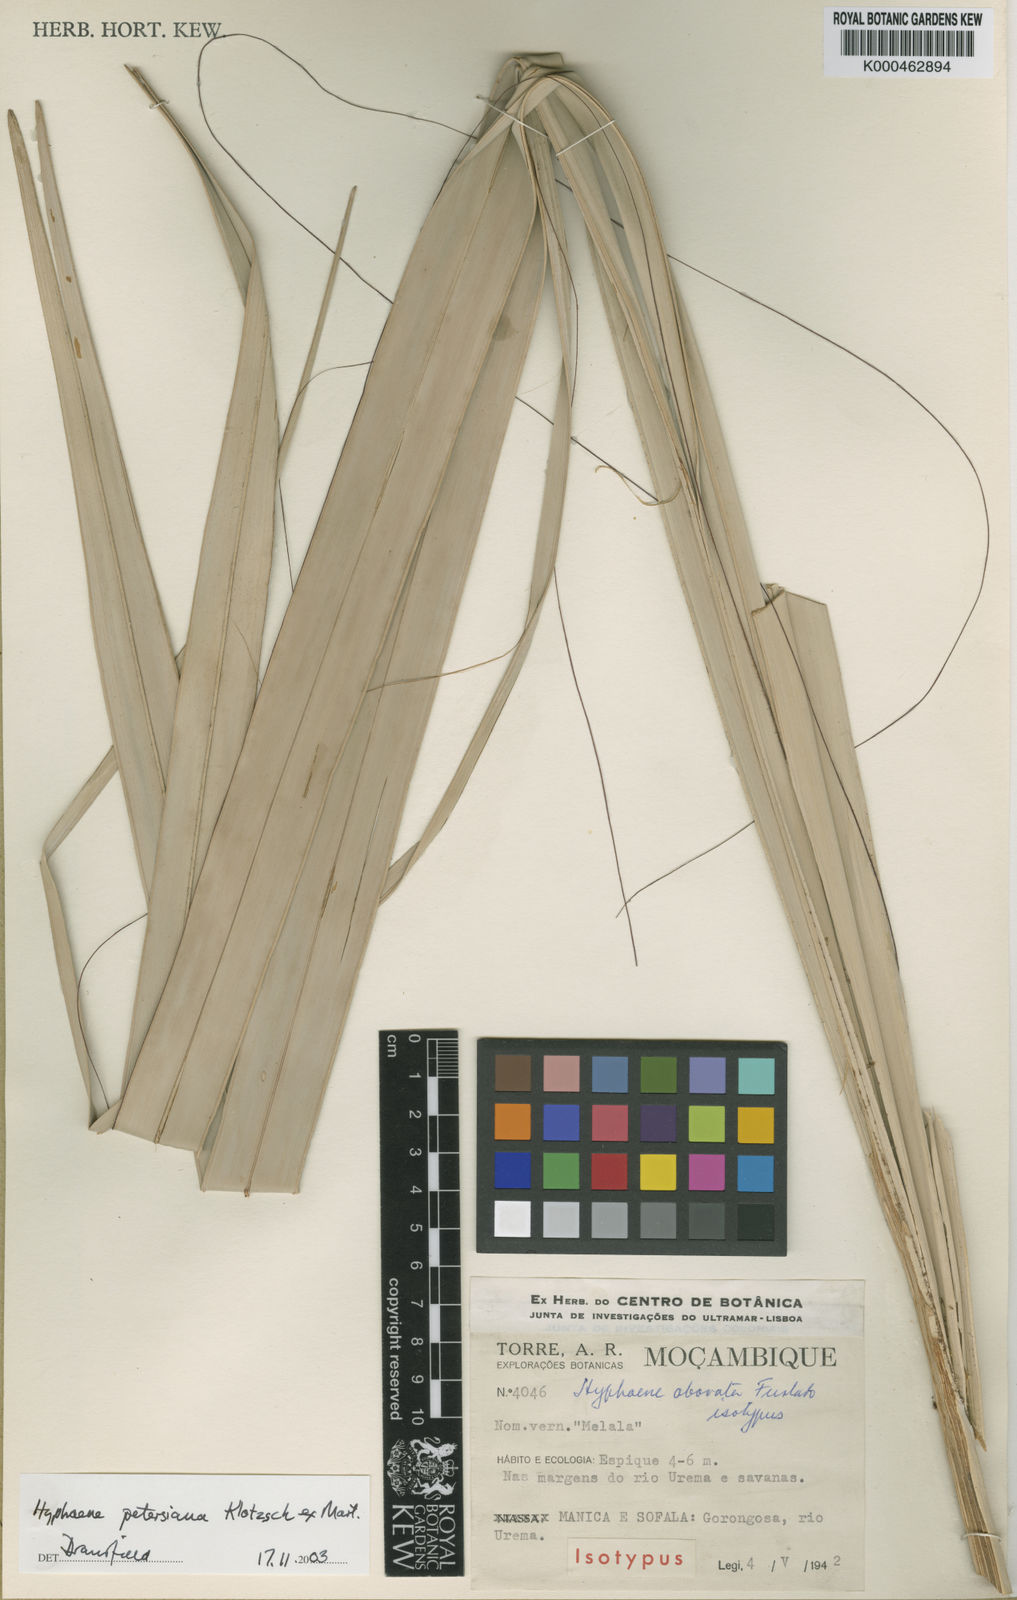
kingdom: Plantae
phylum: Tracheophyta
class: Liliopsida
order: Arecales
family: Arecaceae
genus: Hyphaene
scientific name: Hyphaene petersiana
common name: African ivory nut palm
